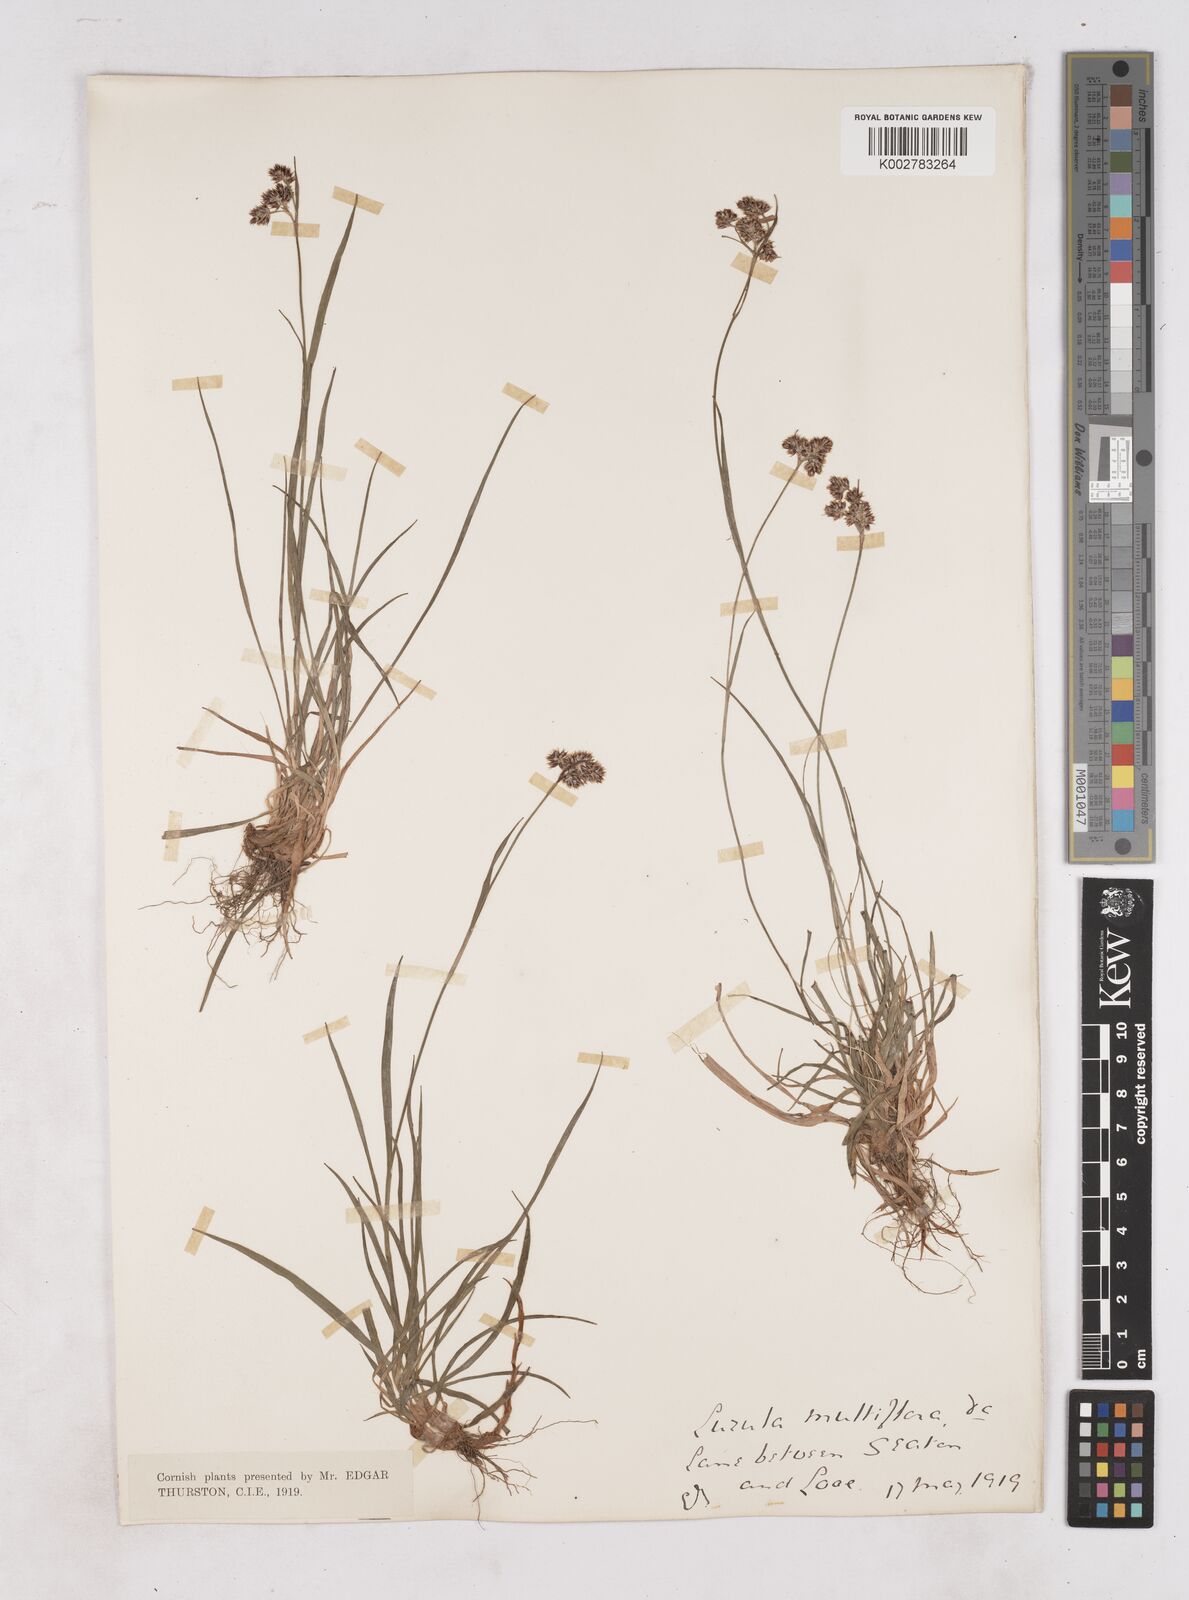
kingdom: Plantae
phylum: Tracheophyta
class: Liliopsida
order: Poales
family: Juncaceae
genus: Luzula
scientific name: Luzula multiflora
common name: Heath wood-rush
